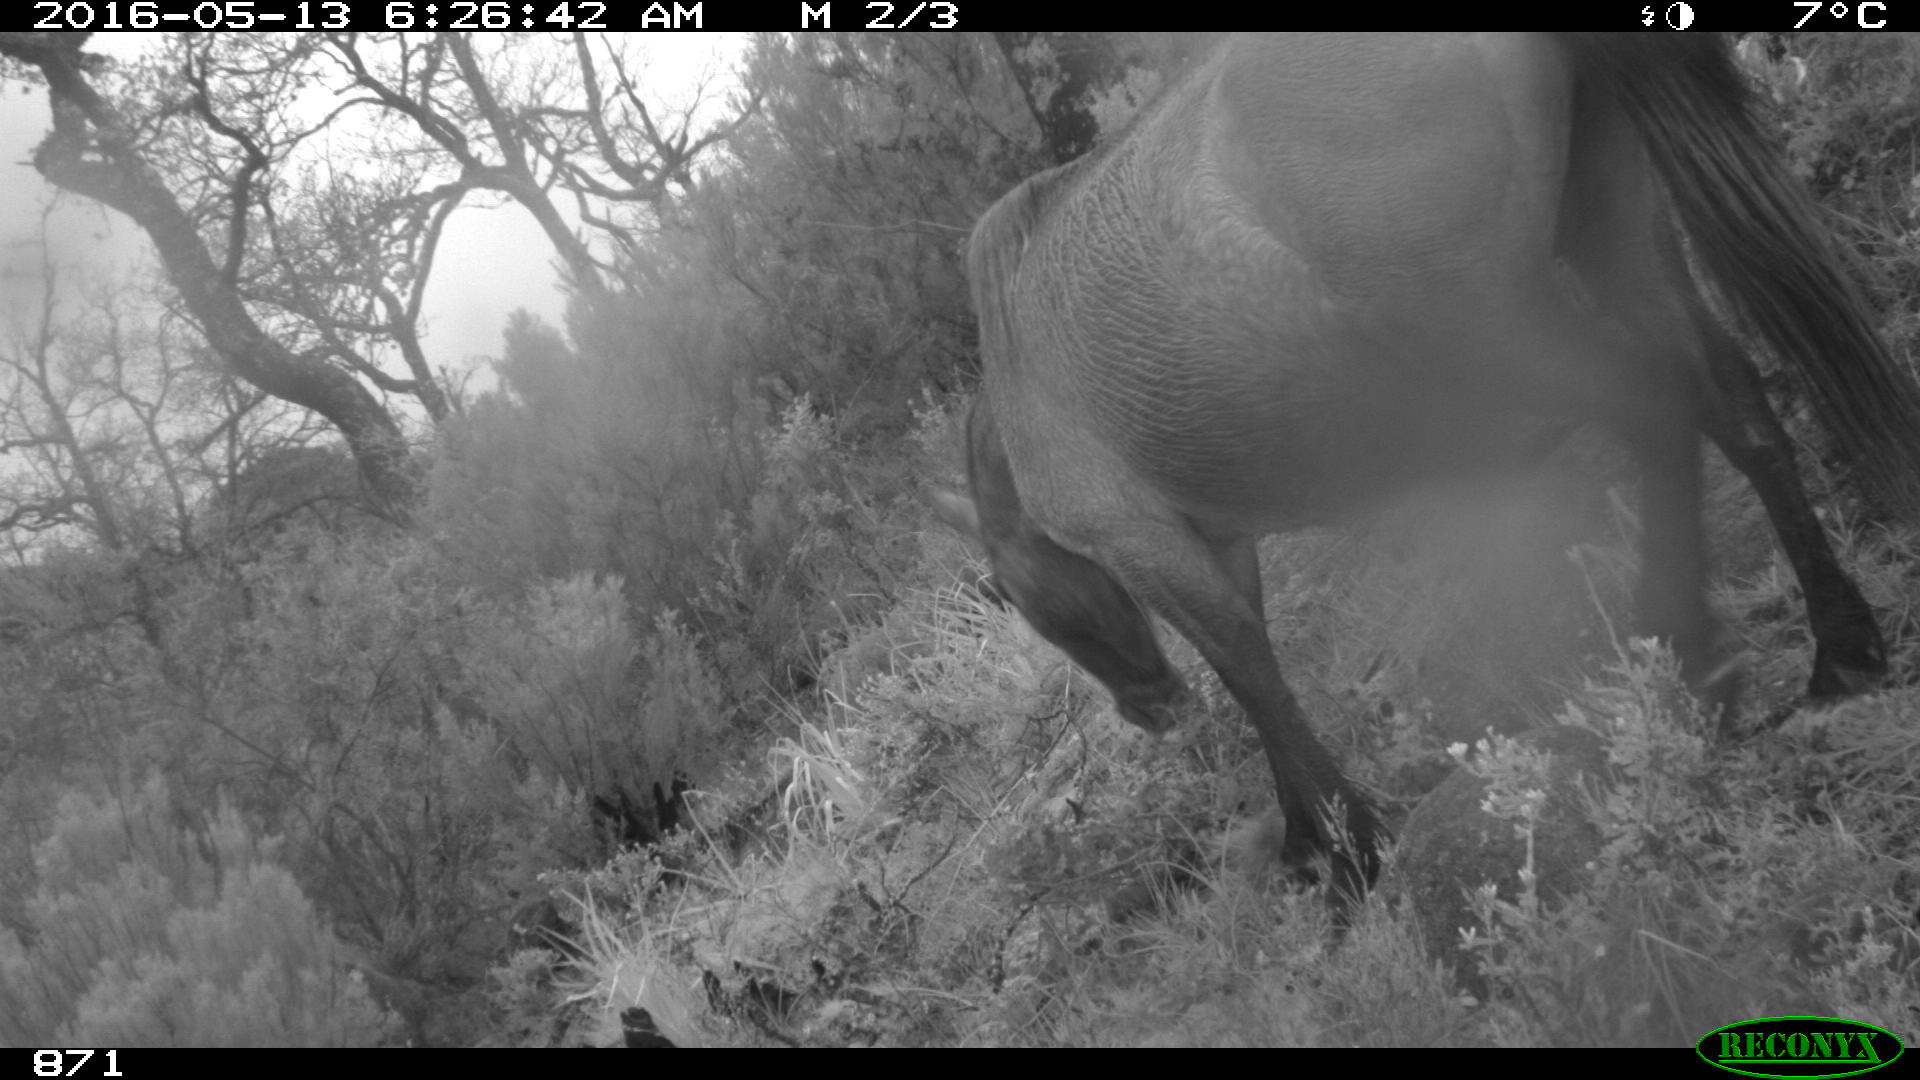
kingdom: Animalia
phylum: Chordata
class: Mammalia
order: Perissodactyla
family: Equidae
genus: Equus
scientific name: Equus caballus
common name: Horse
